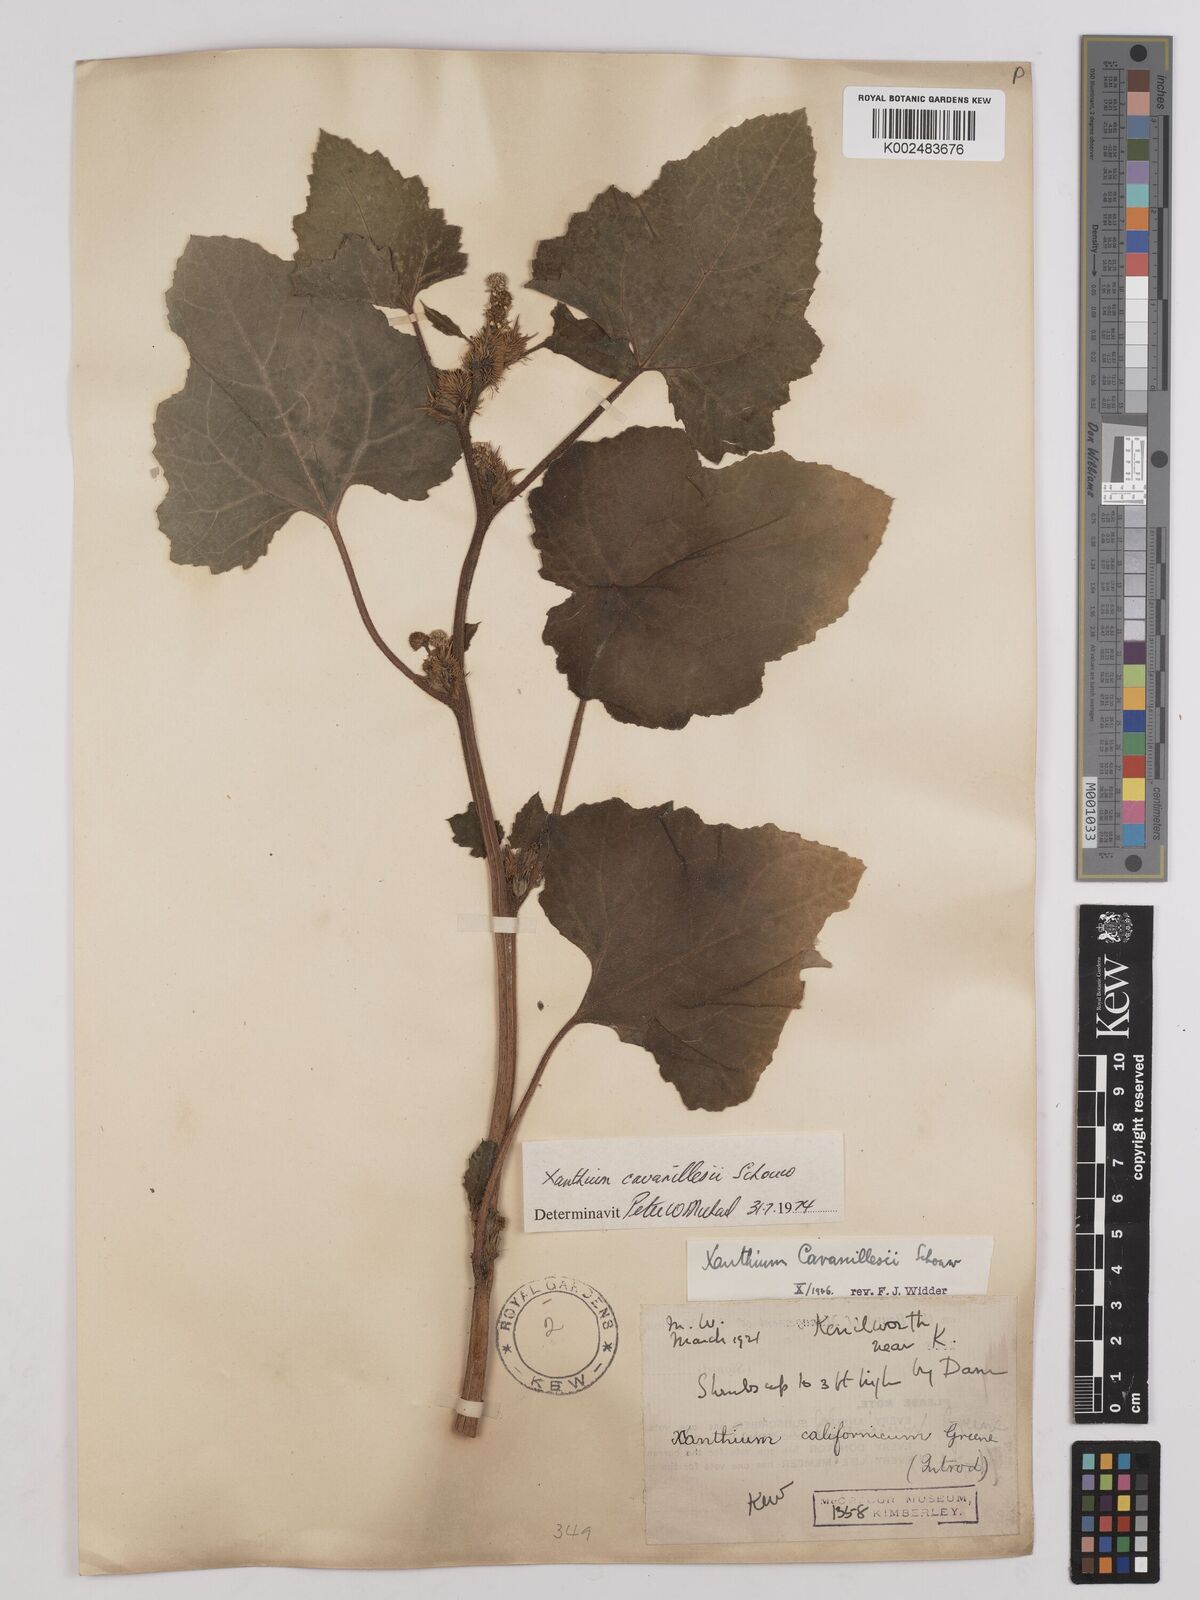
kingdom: Plantae
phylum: Tracheophyta
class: Magnoliopsida
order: Asterales
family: Asteraceae
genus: Xanthium
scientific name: Xanthium orientale
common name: Californian burr
